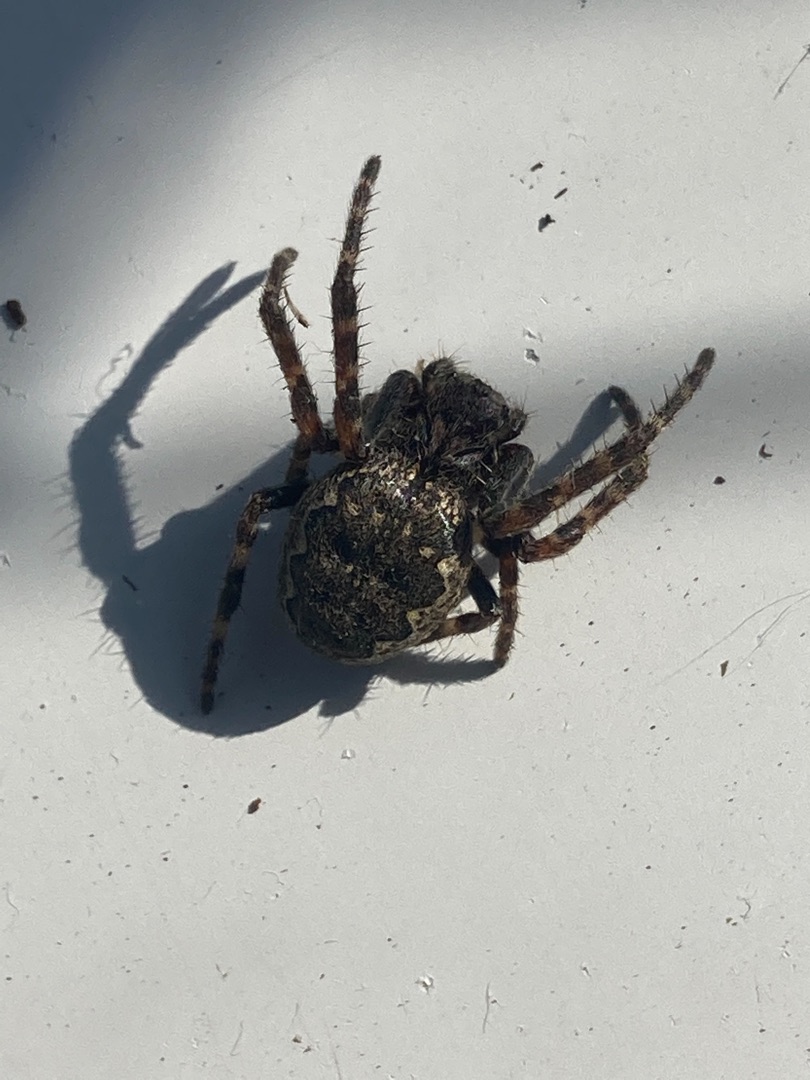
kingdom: Animalia
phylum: Arthropoda
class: Arachnida
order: Araneae
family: Araneidae
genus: Nuctenea
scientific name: Nuctenea umbratica
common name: Flad hjulspinder
